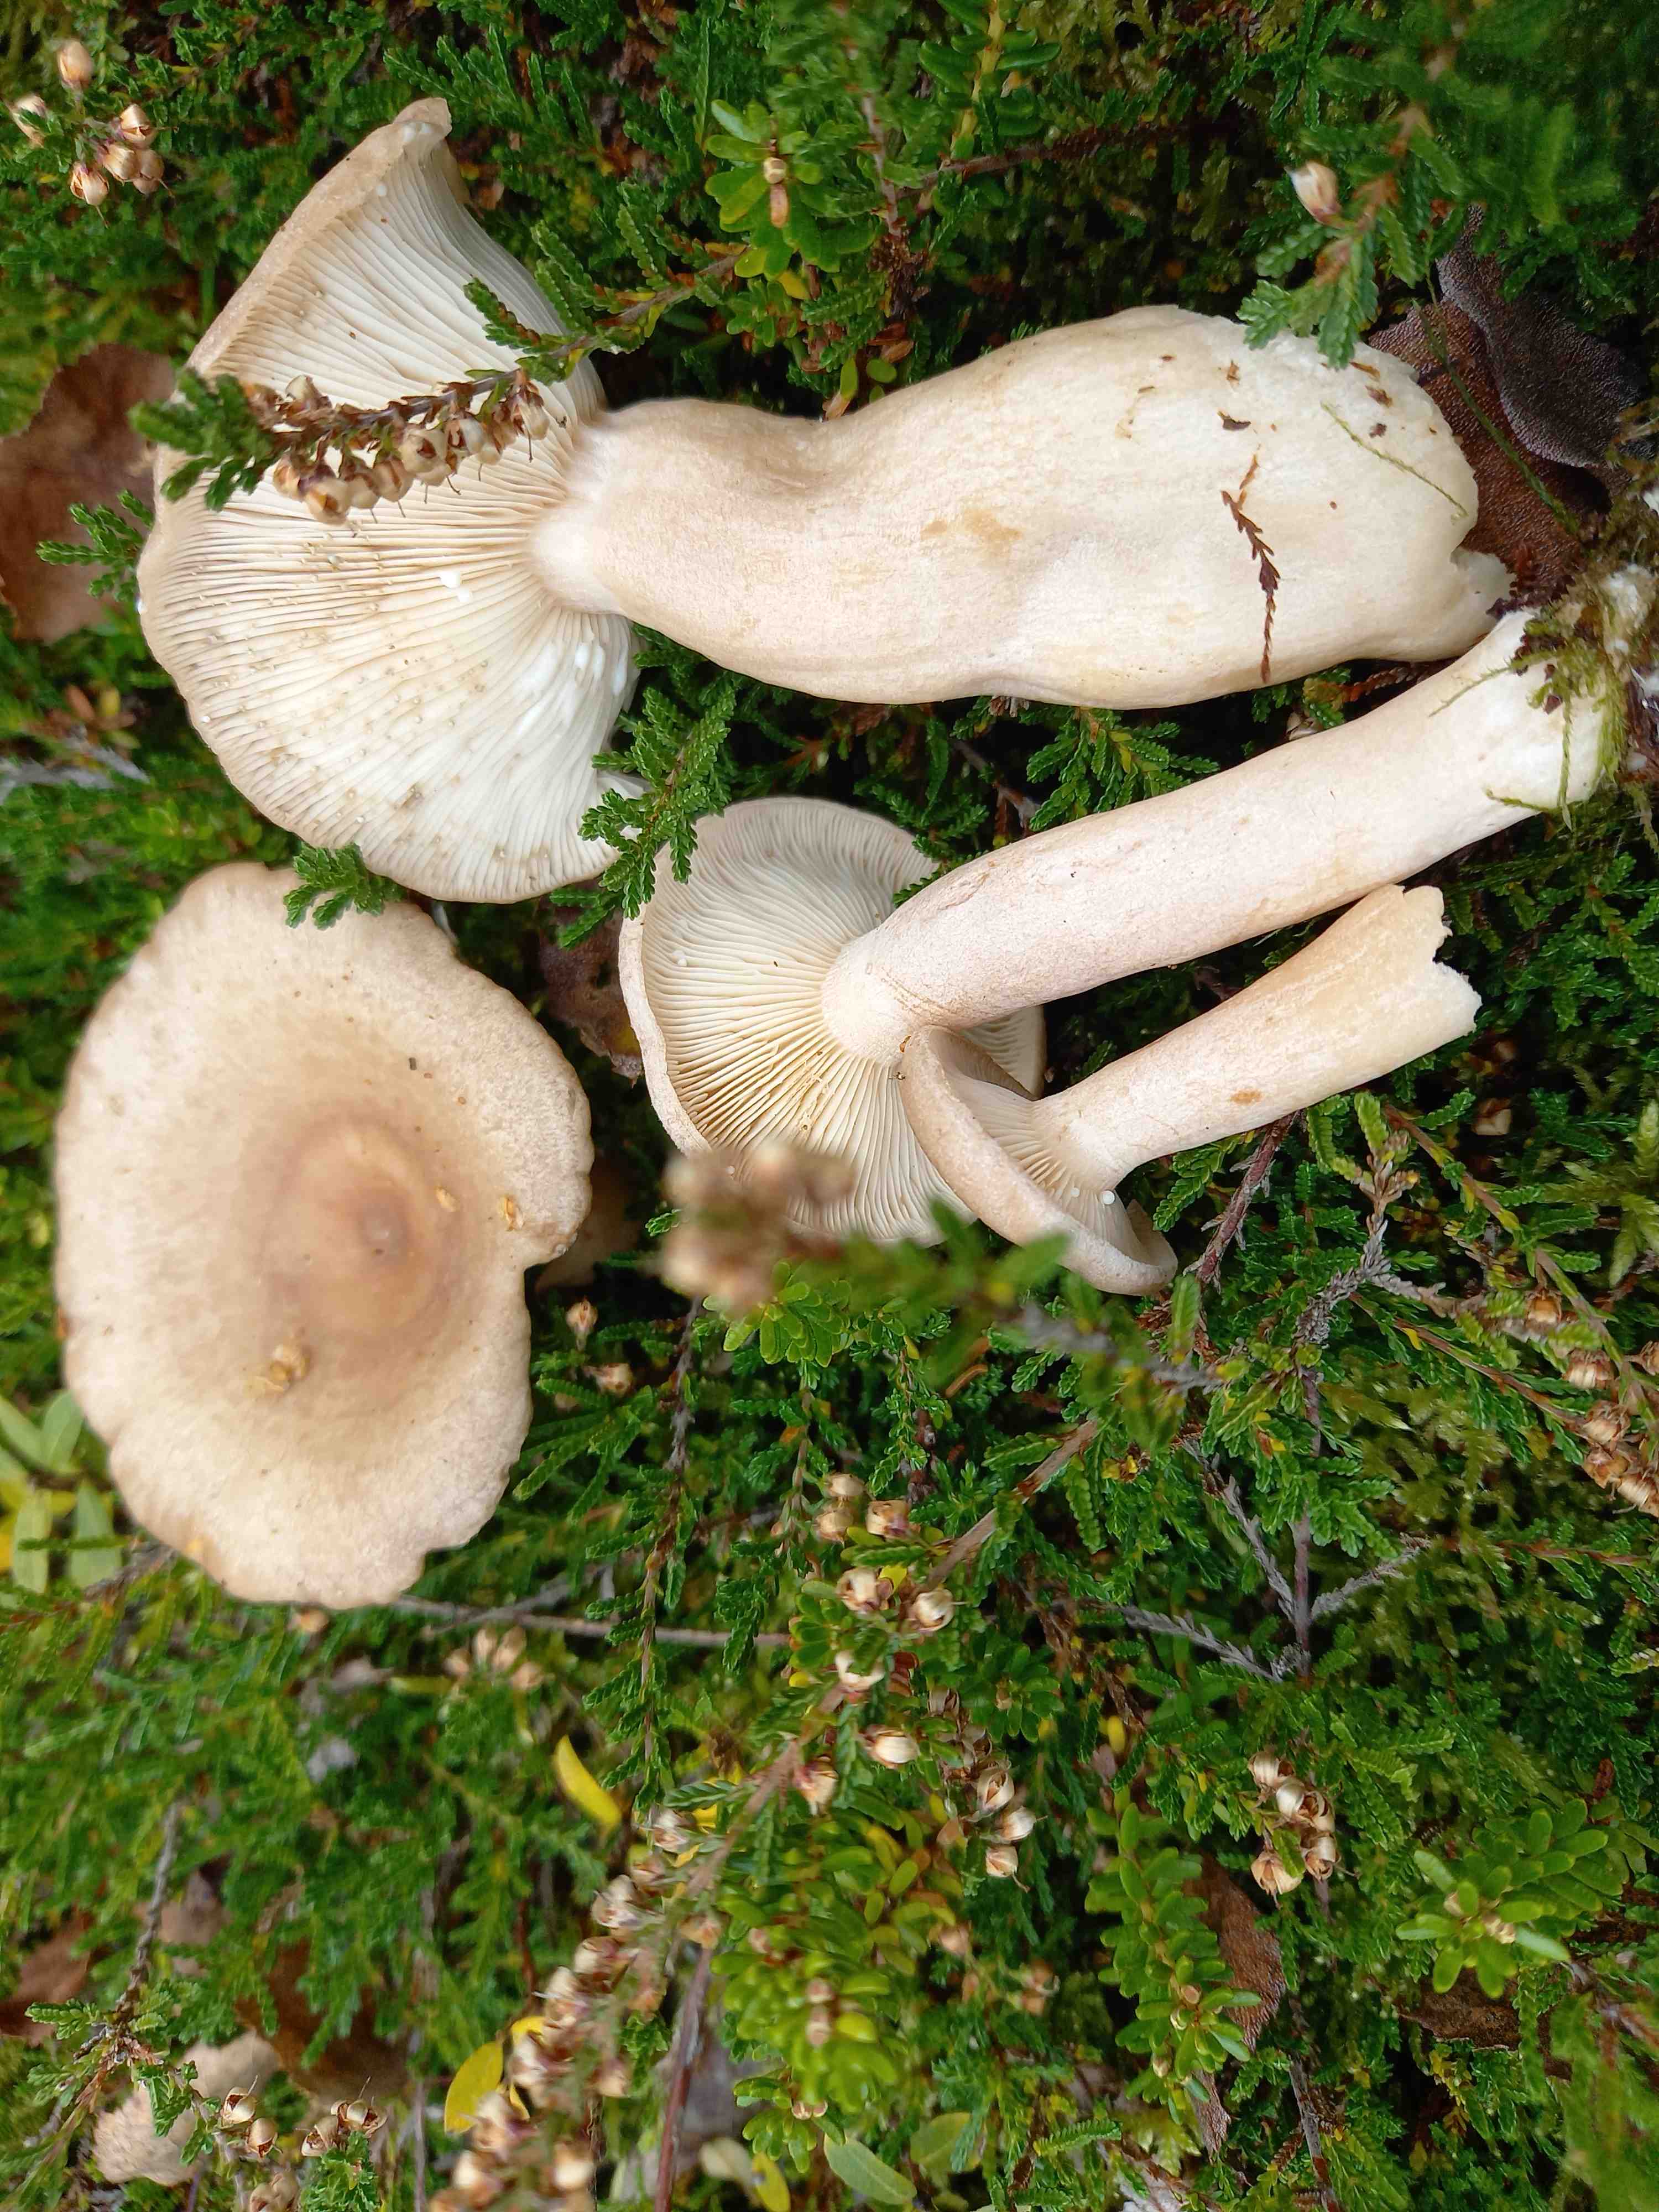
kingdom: Fungi
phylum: Basidiomycota
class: Agaricomycetes
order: Russulales
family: Russulaceae
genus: Lactarius
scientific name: Lactarius vietus
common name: violetgrå mælkehat
